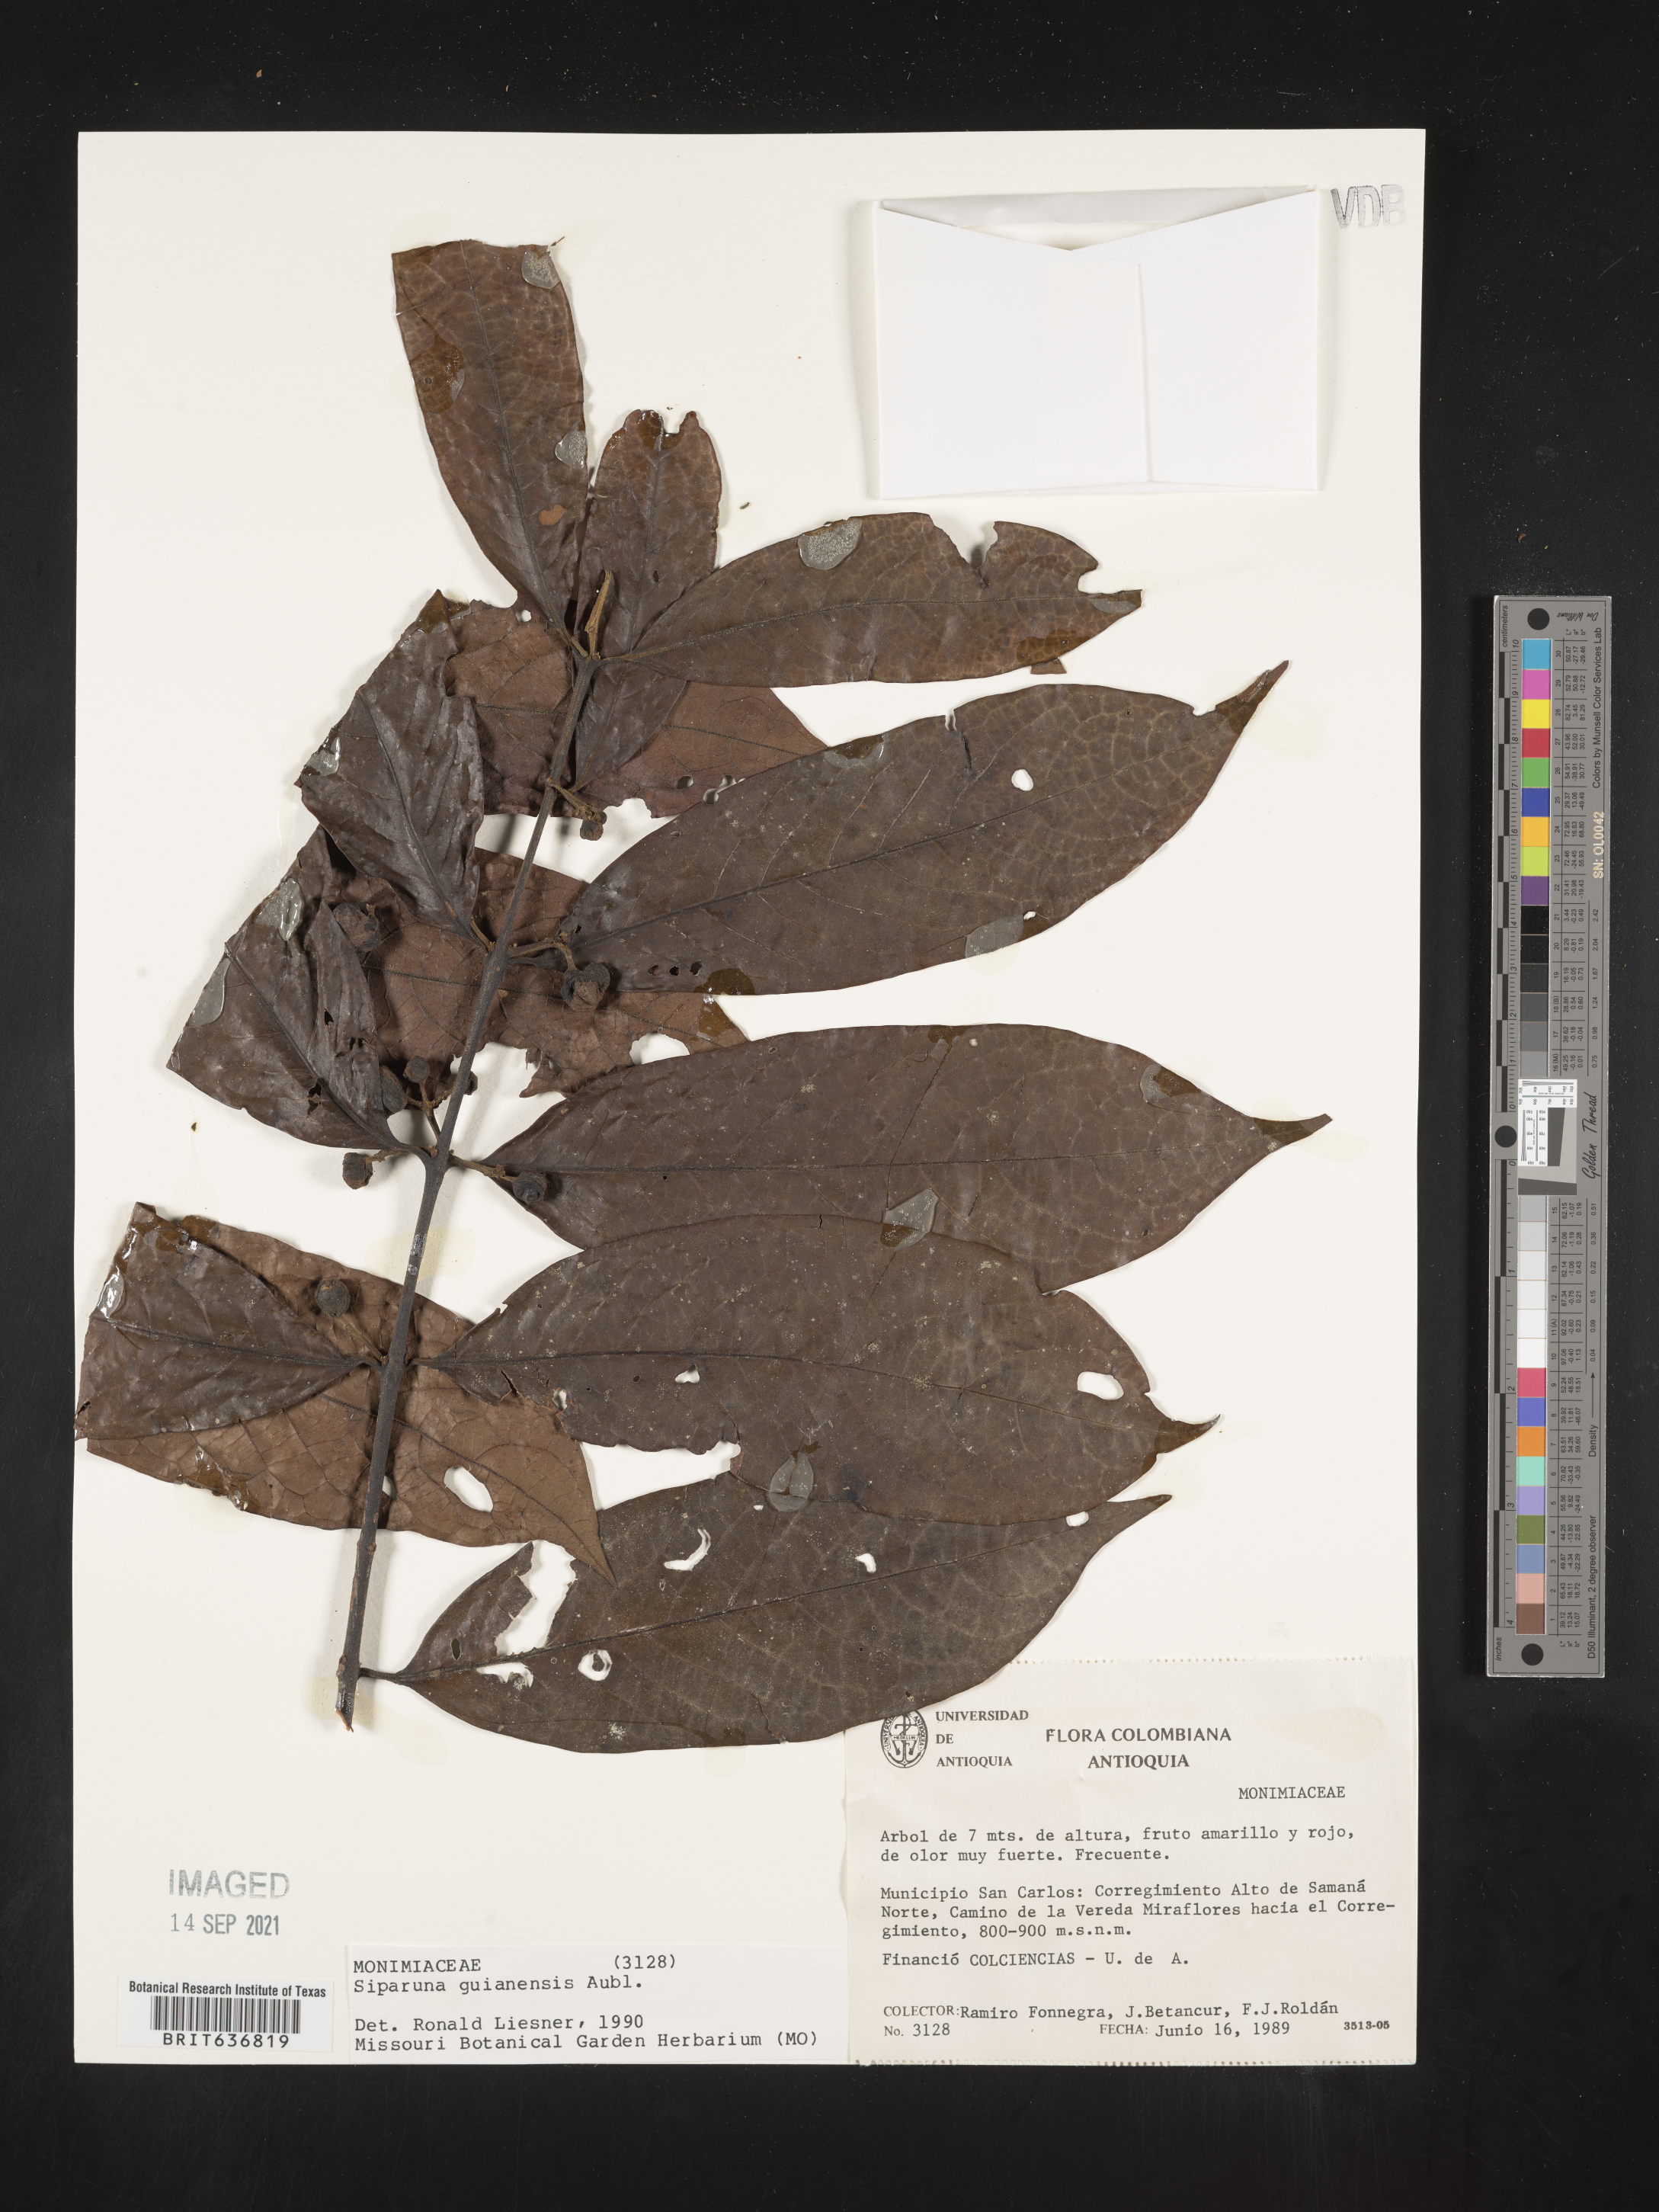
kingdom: Plantae
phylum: Tracheophyta
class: Magnoliopsida
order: Laurales
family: Siparunaceae
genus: Siparuna
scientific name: Siparuna
